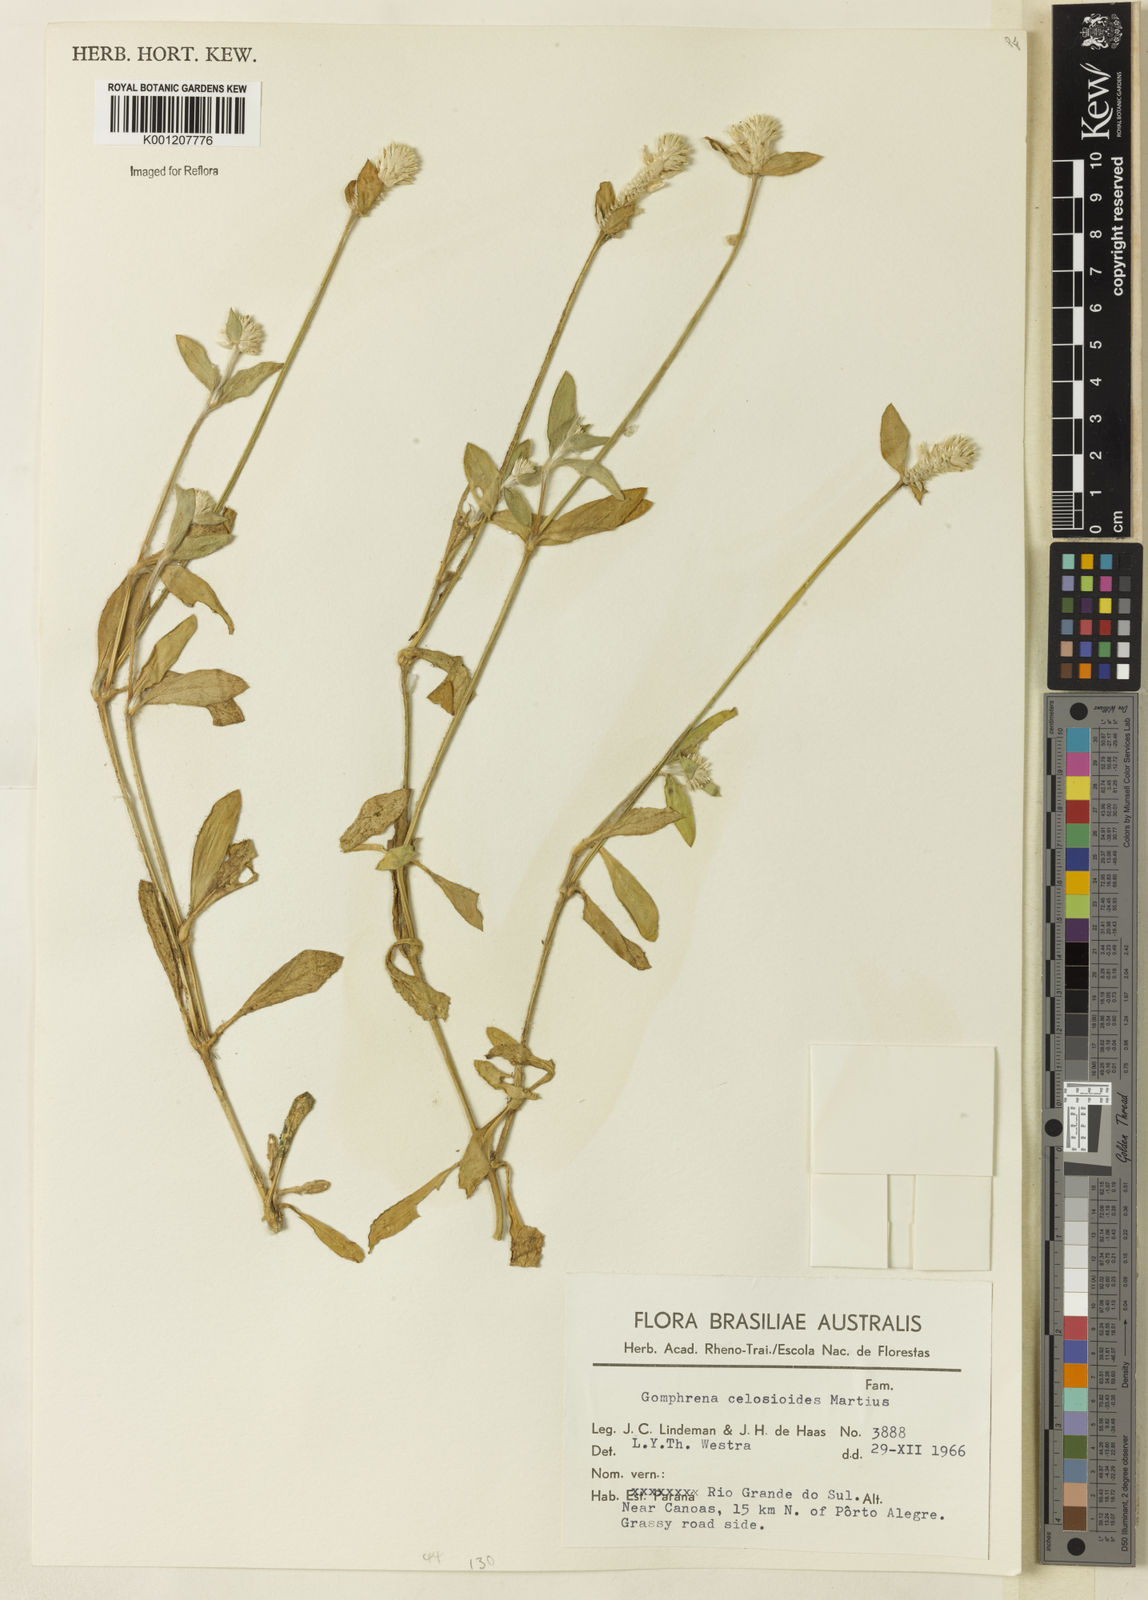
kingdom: Plantae
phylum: Tracheophyta
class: Magnoliopsida
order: Caryophyllales
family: Amaranthaceae
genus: Gomphrena
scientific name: Gomphrena celosioides
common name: Gomphrena-weed
